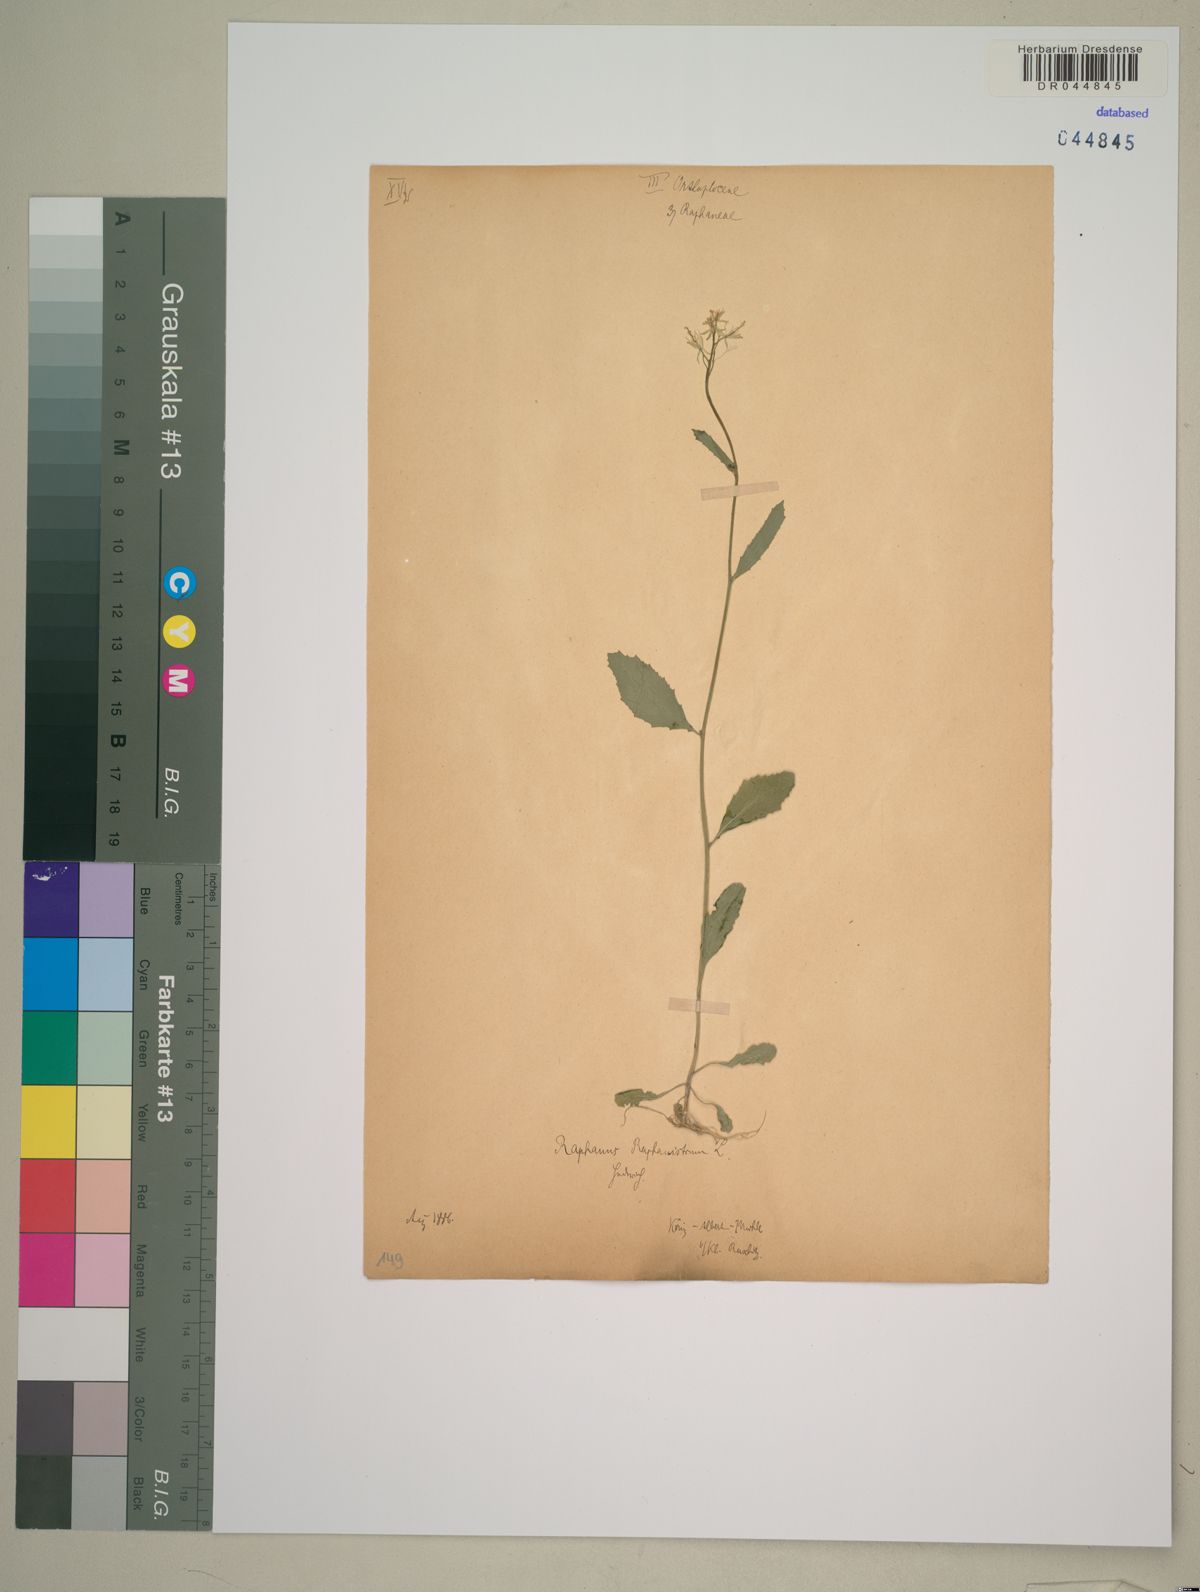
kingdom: Plantae
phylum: Tracheophyta
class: Magnoliopsida
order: Brassicales
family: Brassicaceae
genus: Raphanus
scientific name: Raphanus raphanistrum
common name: Wild radish
